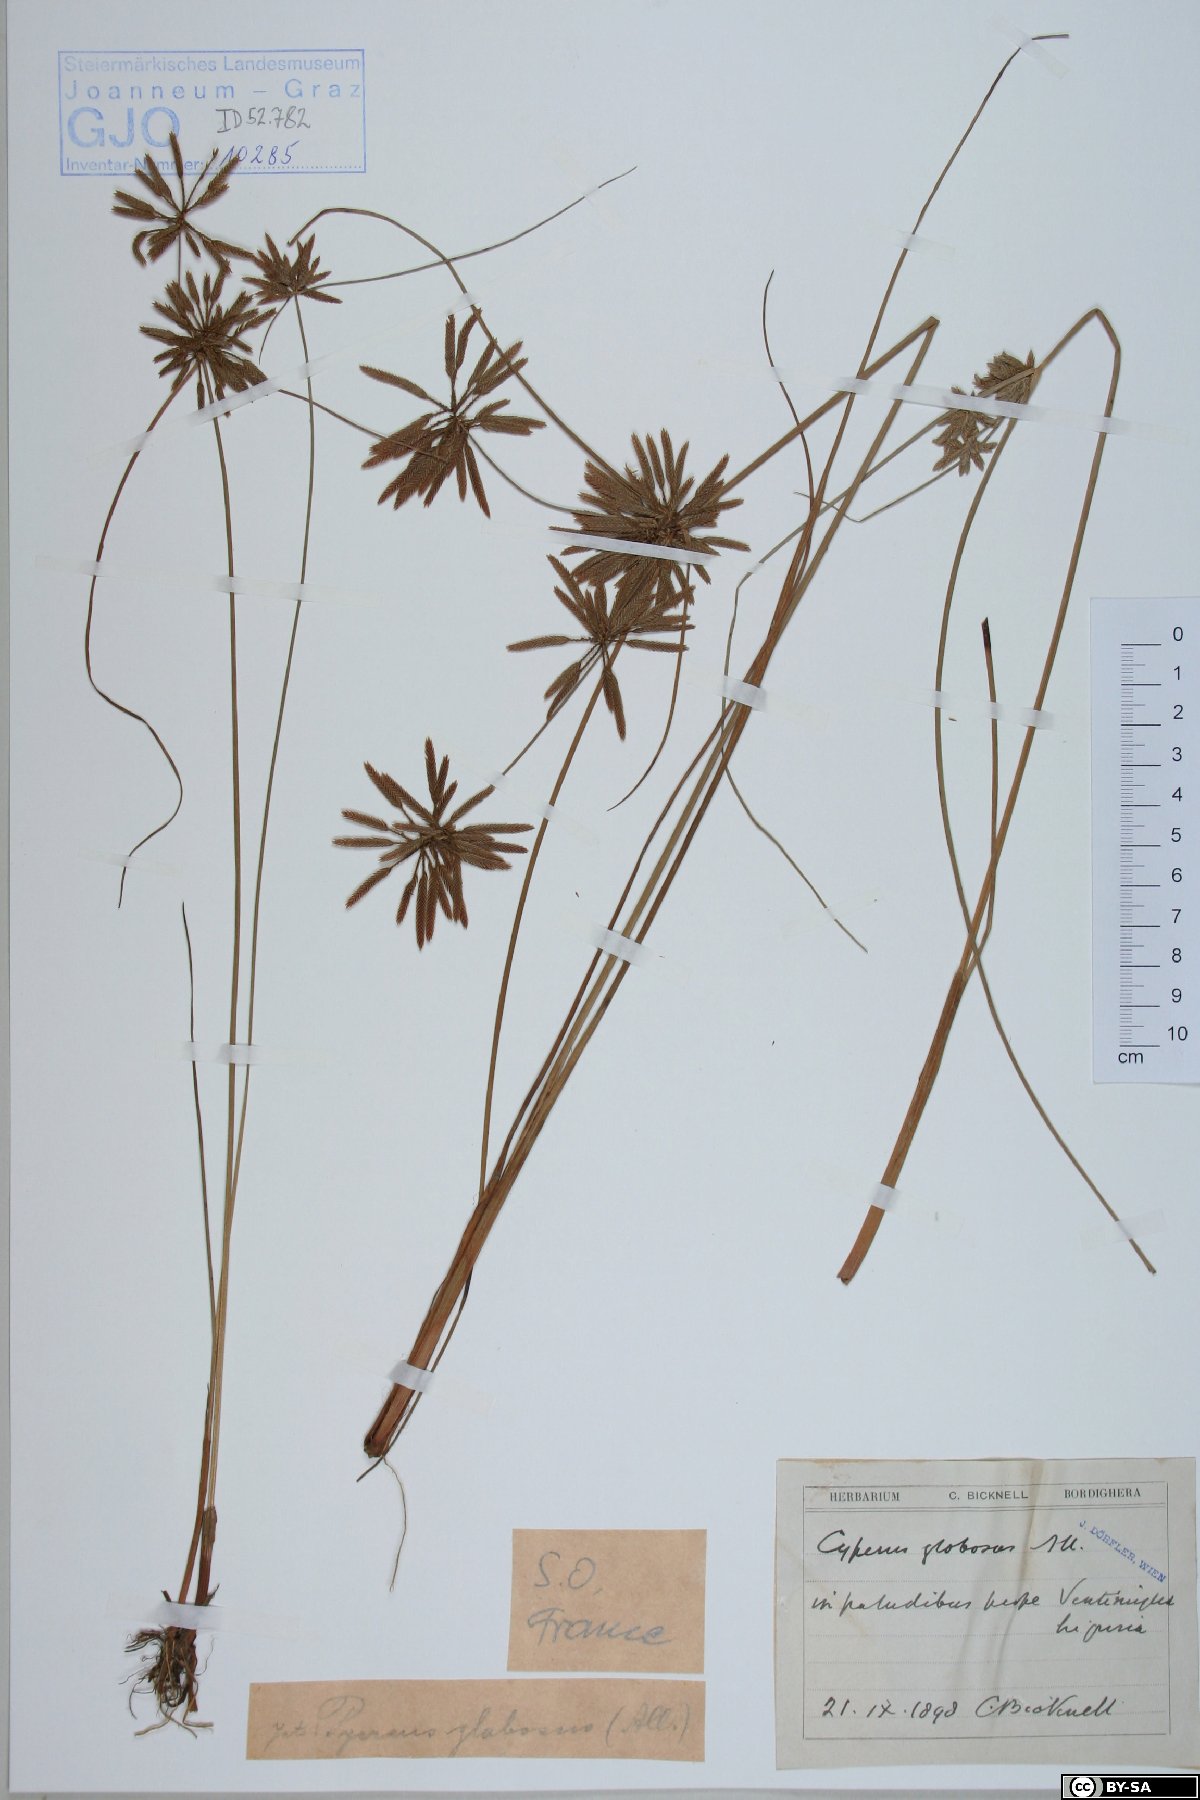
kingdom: Plantae
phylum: Tracheophyta
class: Liliopsida
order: Poales
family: Cyperaceae
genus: Cyperus
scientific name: Cyperus flavidus
